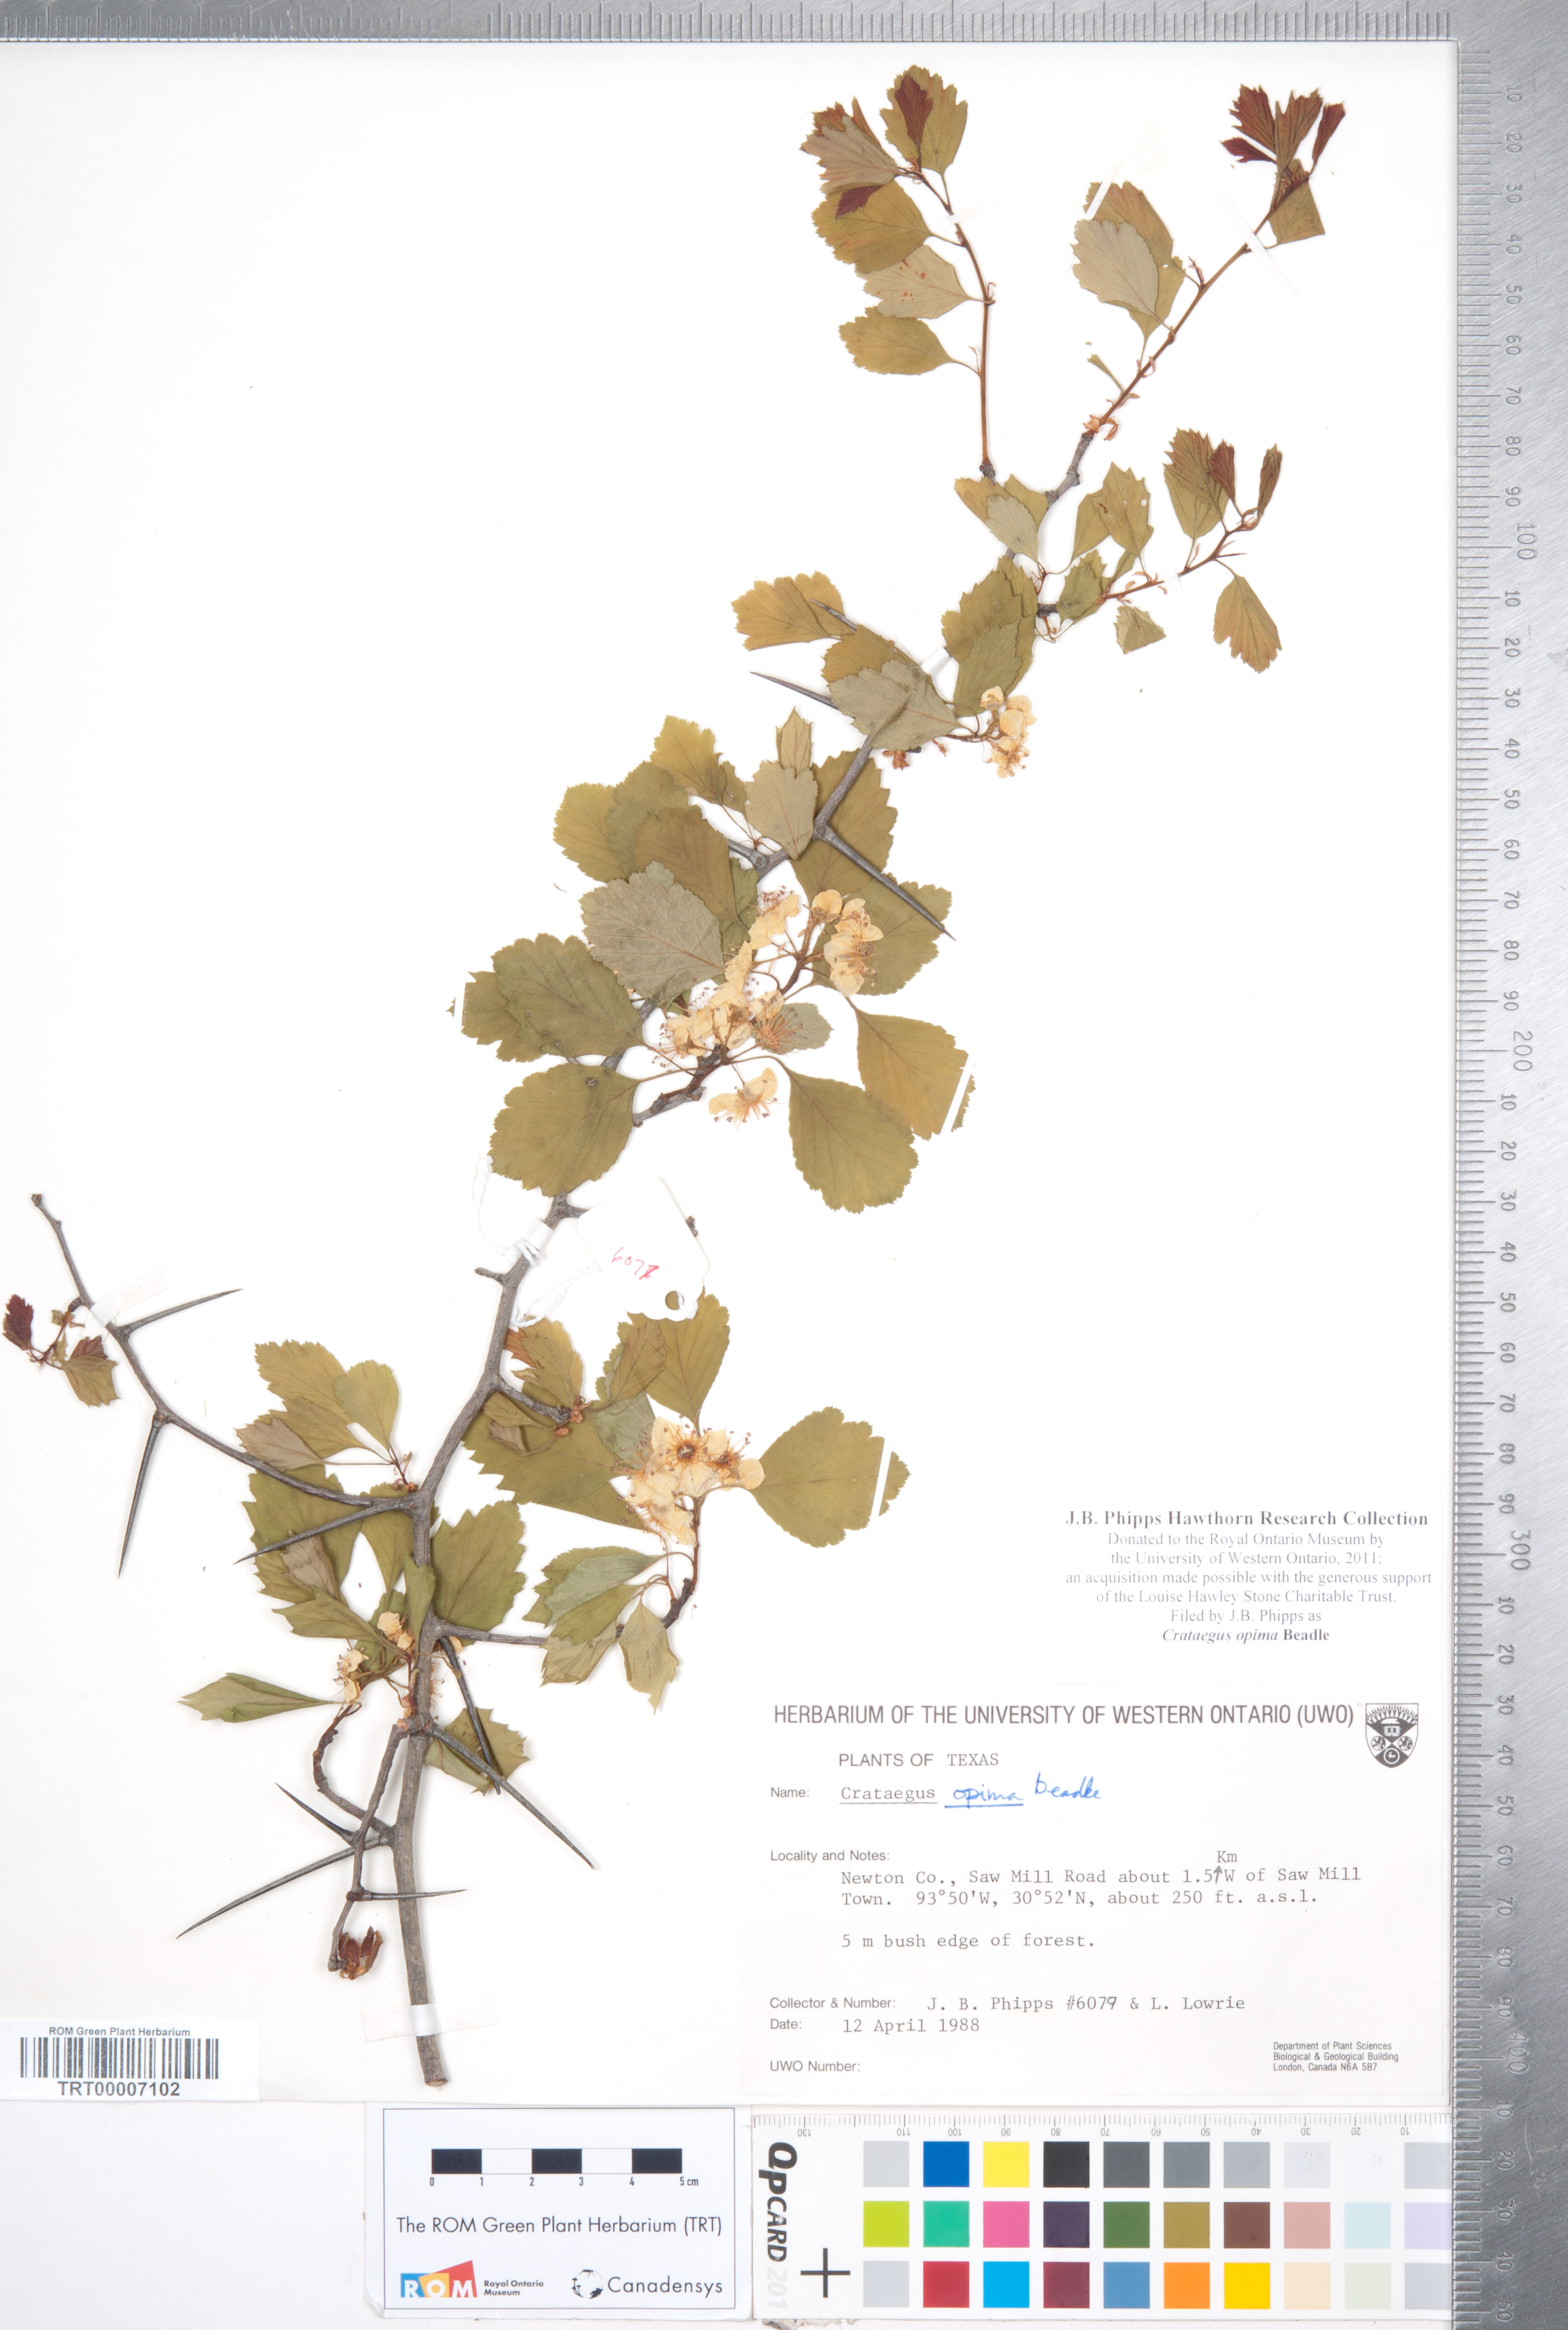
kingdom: Plantae
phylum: Tracheophyta
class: Magnoliopsida
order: Rosales
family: Rosaceae
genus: Crataegus
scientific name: Crataegus pulcherrima
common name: Beautiful hawthorn
